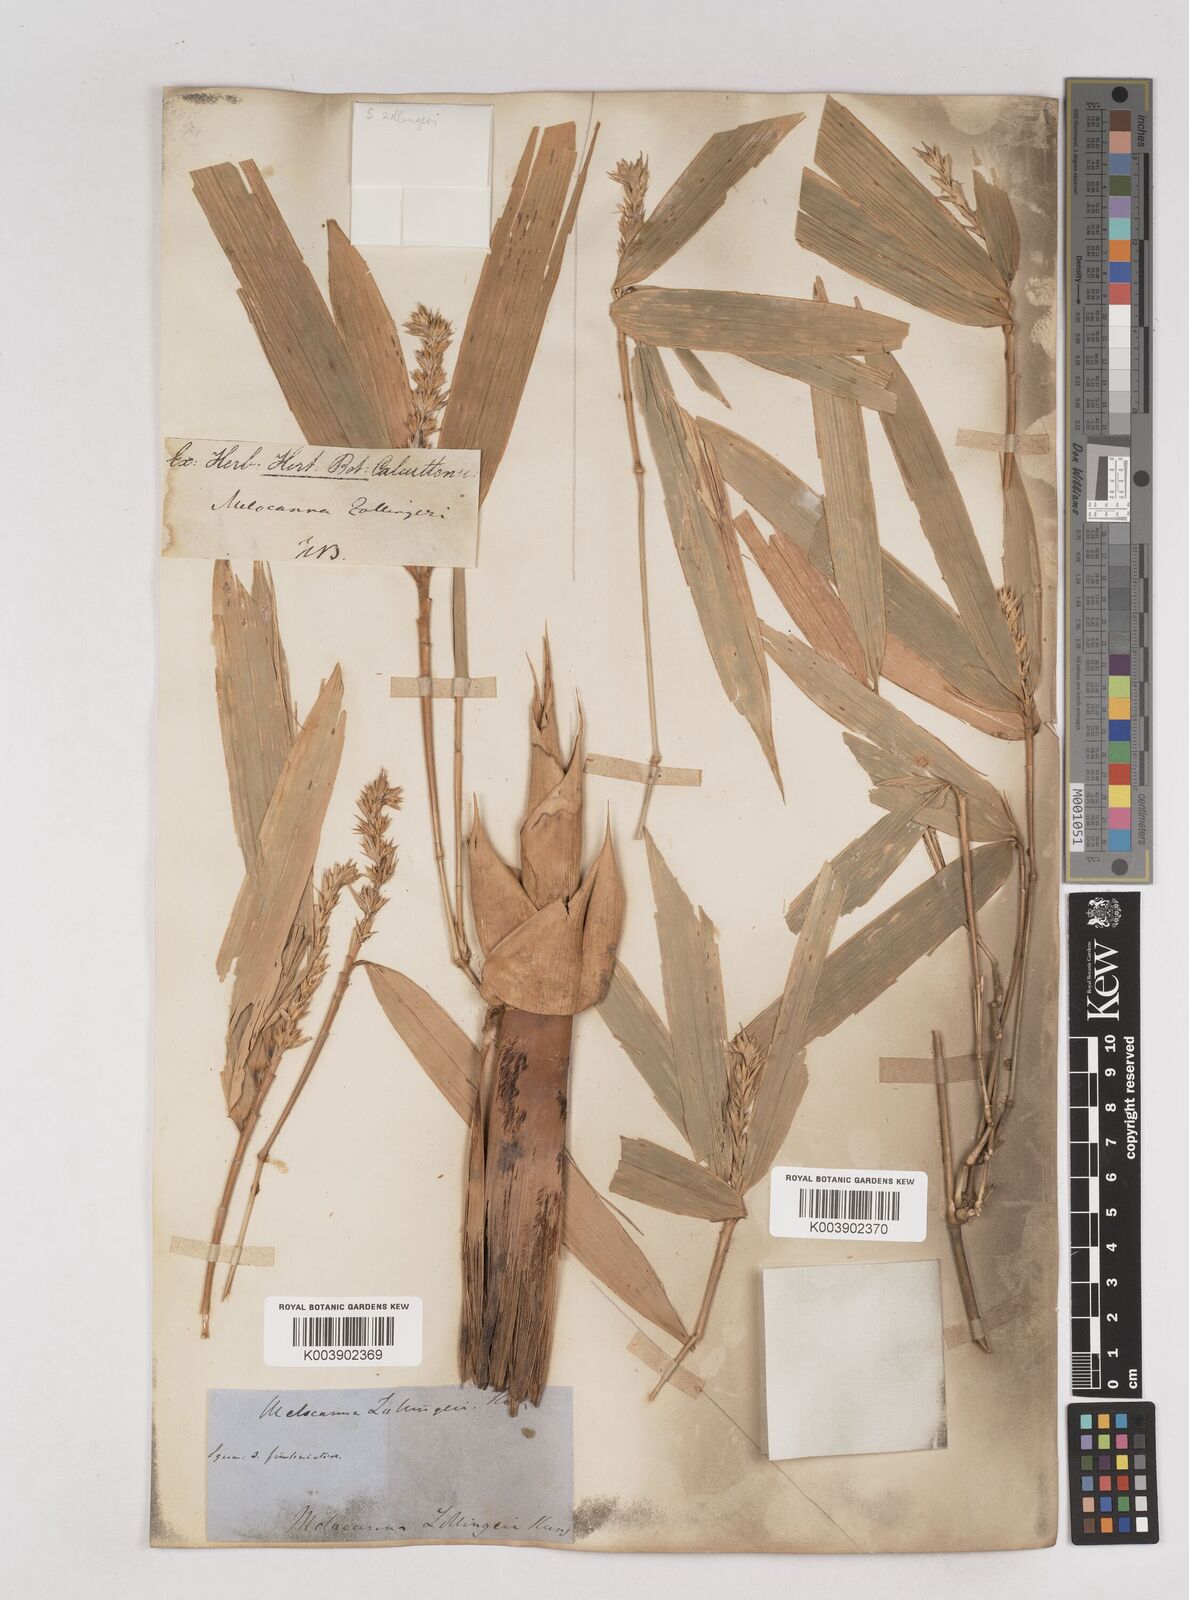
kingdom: Plantae
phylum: Tracheophyta
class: Liliopsida
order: Poales
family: Poaceae
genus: Schizostachyum
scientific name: Schizostachyum zollingeri
